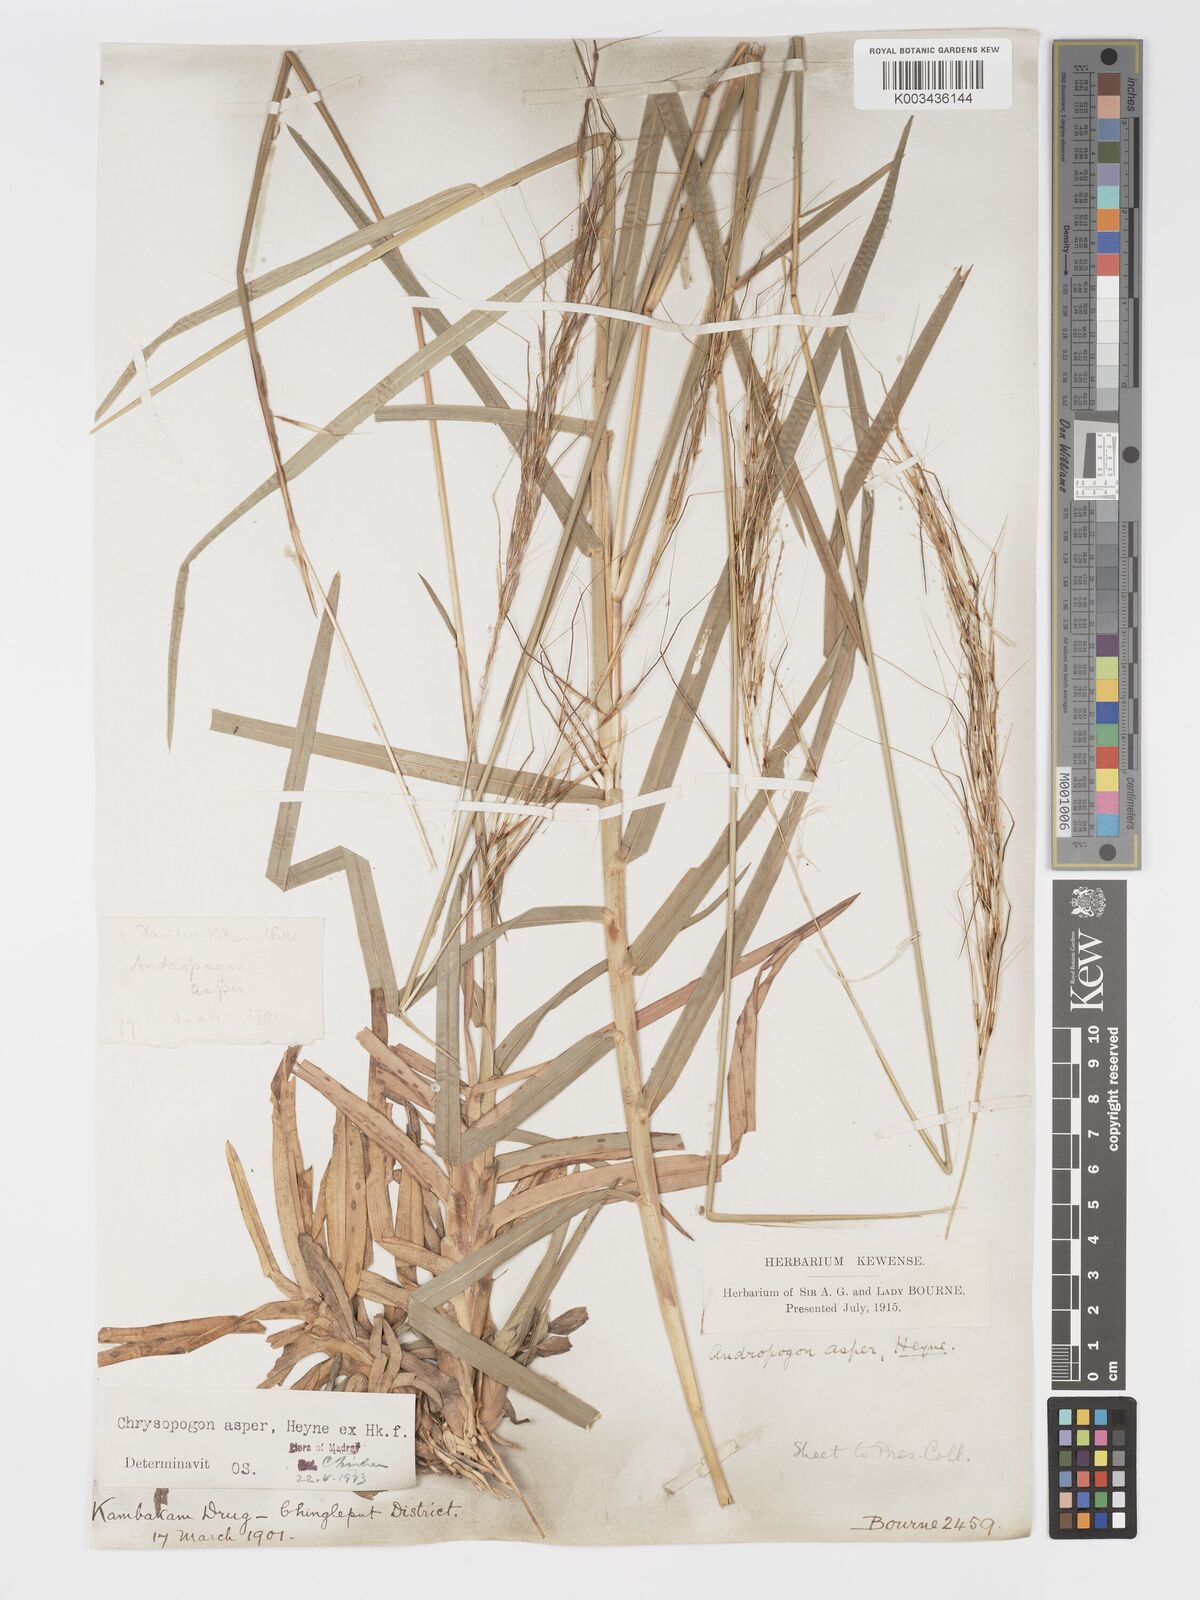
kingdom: Plantae
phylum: Tracheophyta
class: Liliopsida
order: Poales
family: Poaceae
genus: Chrysopogon
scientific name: Chrysopogon asper
